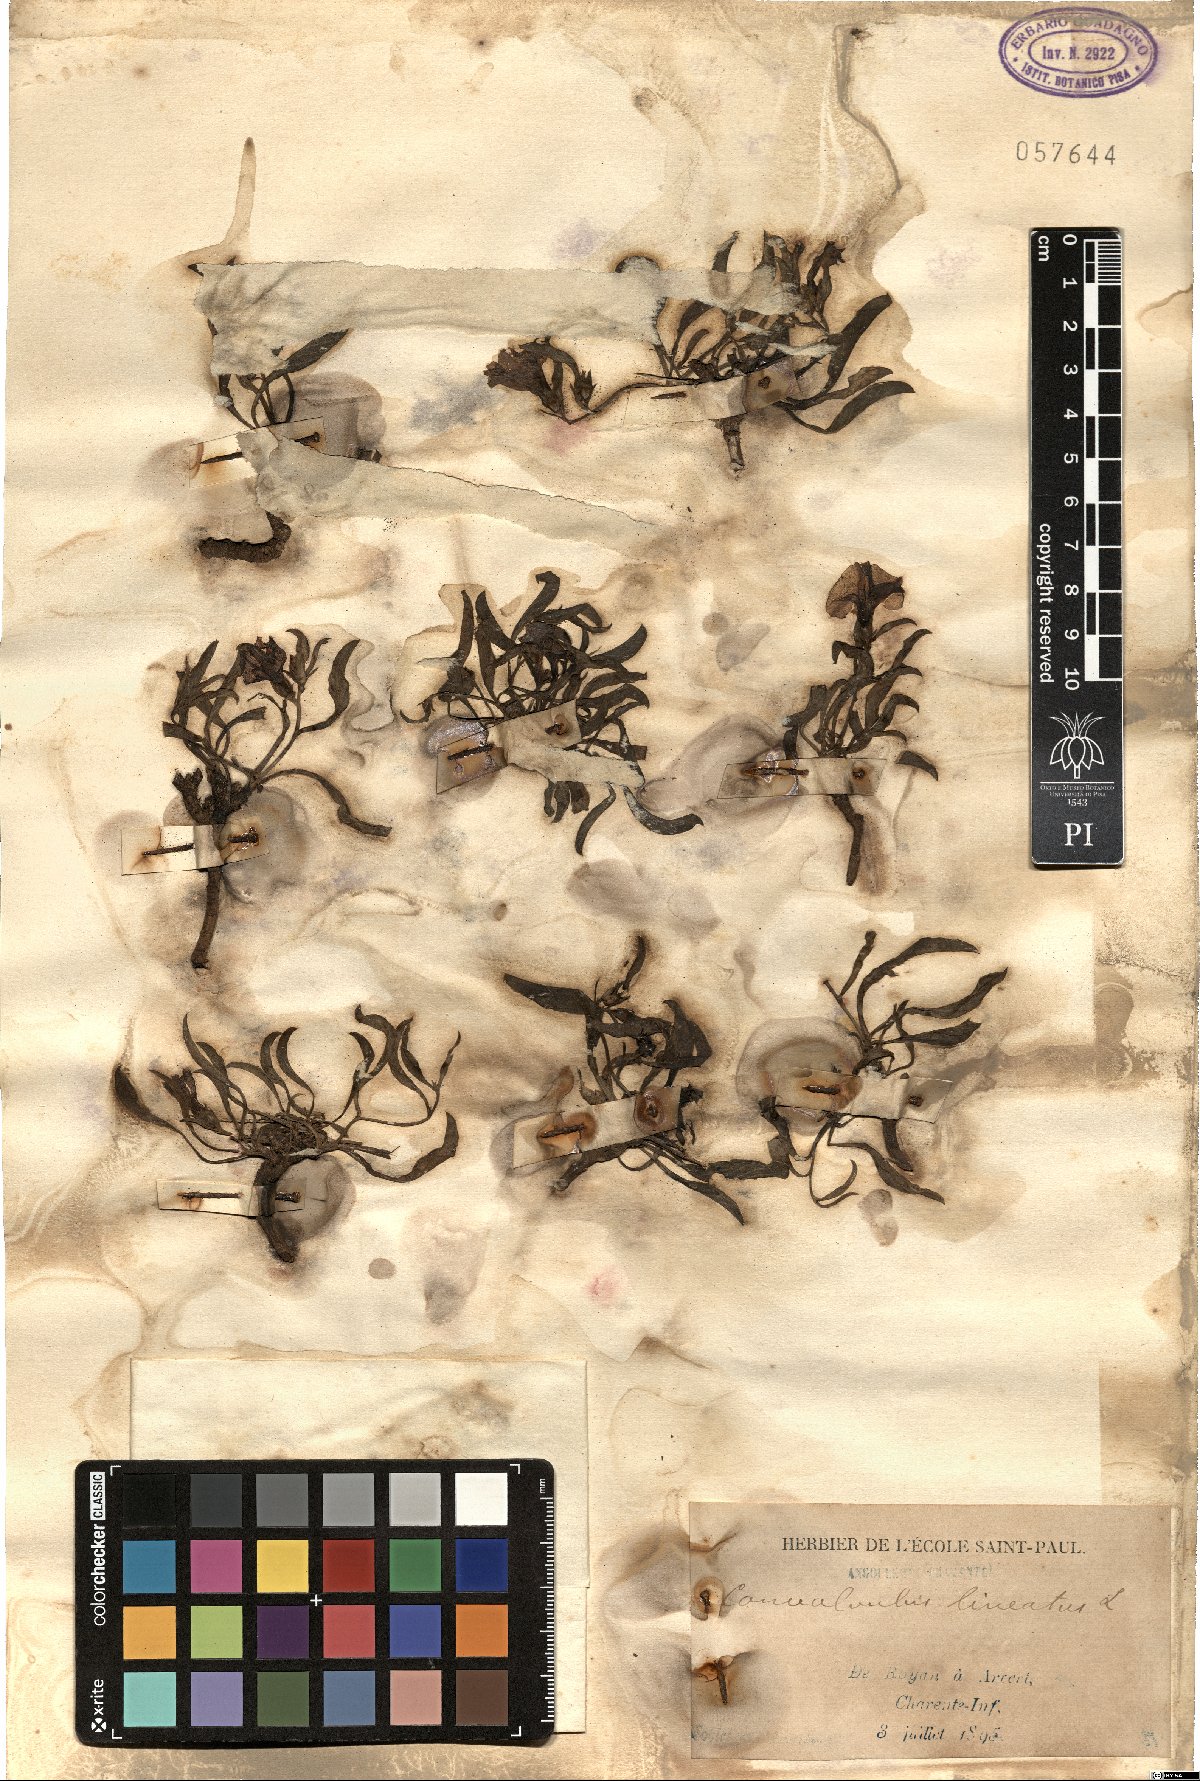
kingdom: Plantae
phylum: Tracheophyta
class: Magnoliopsida
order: Solanales
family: Convolvulaceae
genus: Convolvulus
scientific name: Convolvulus lineatus
